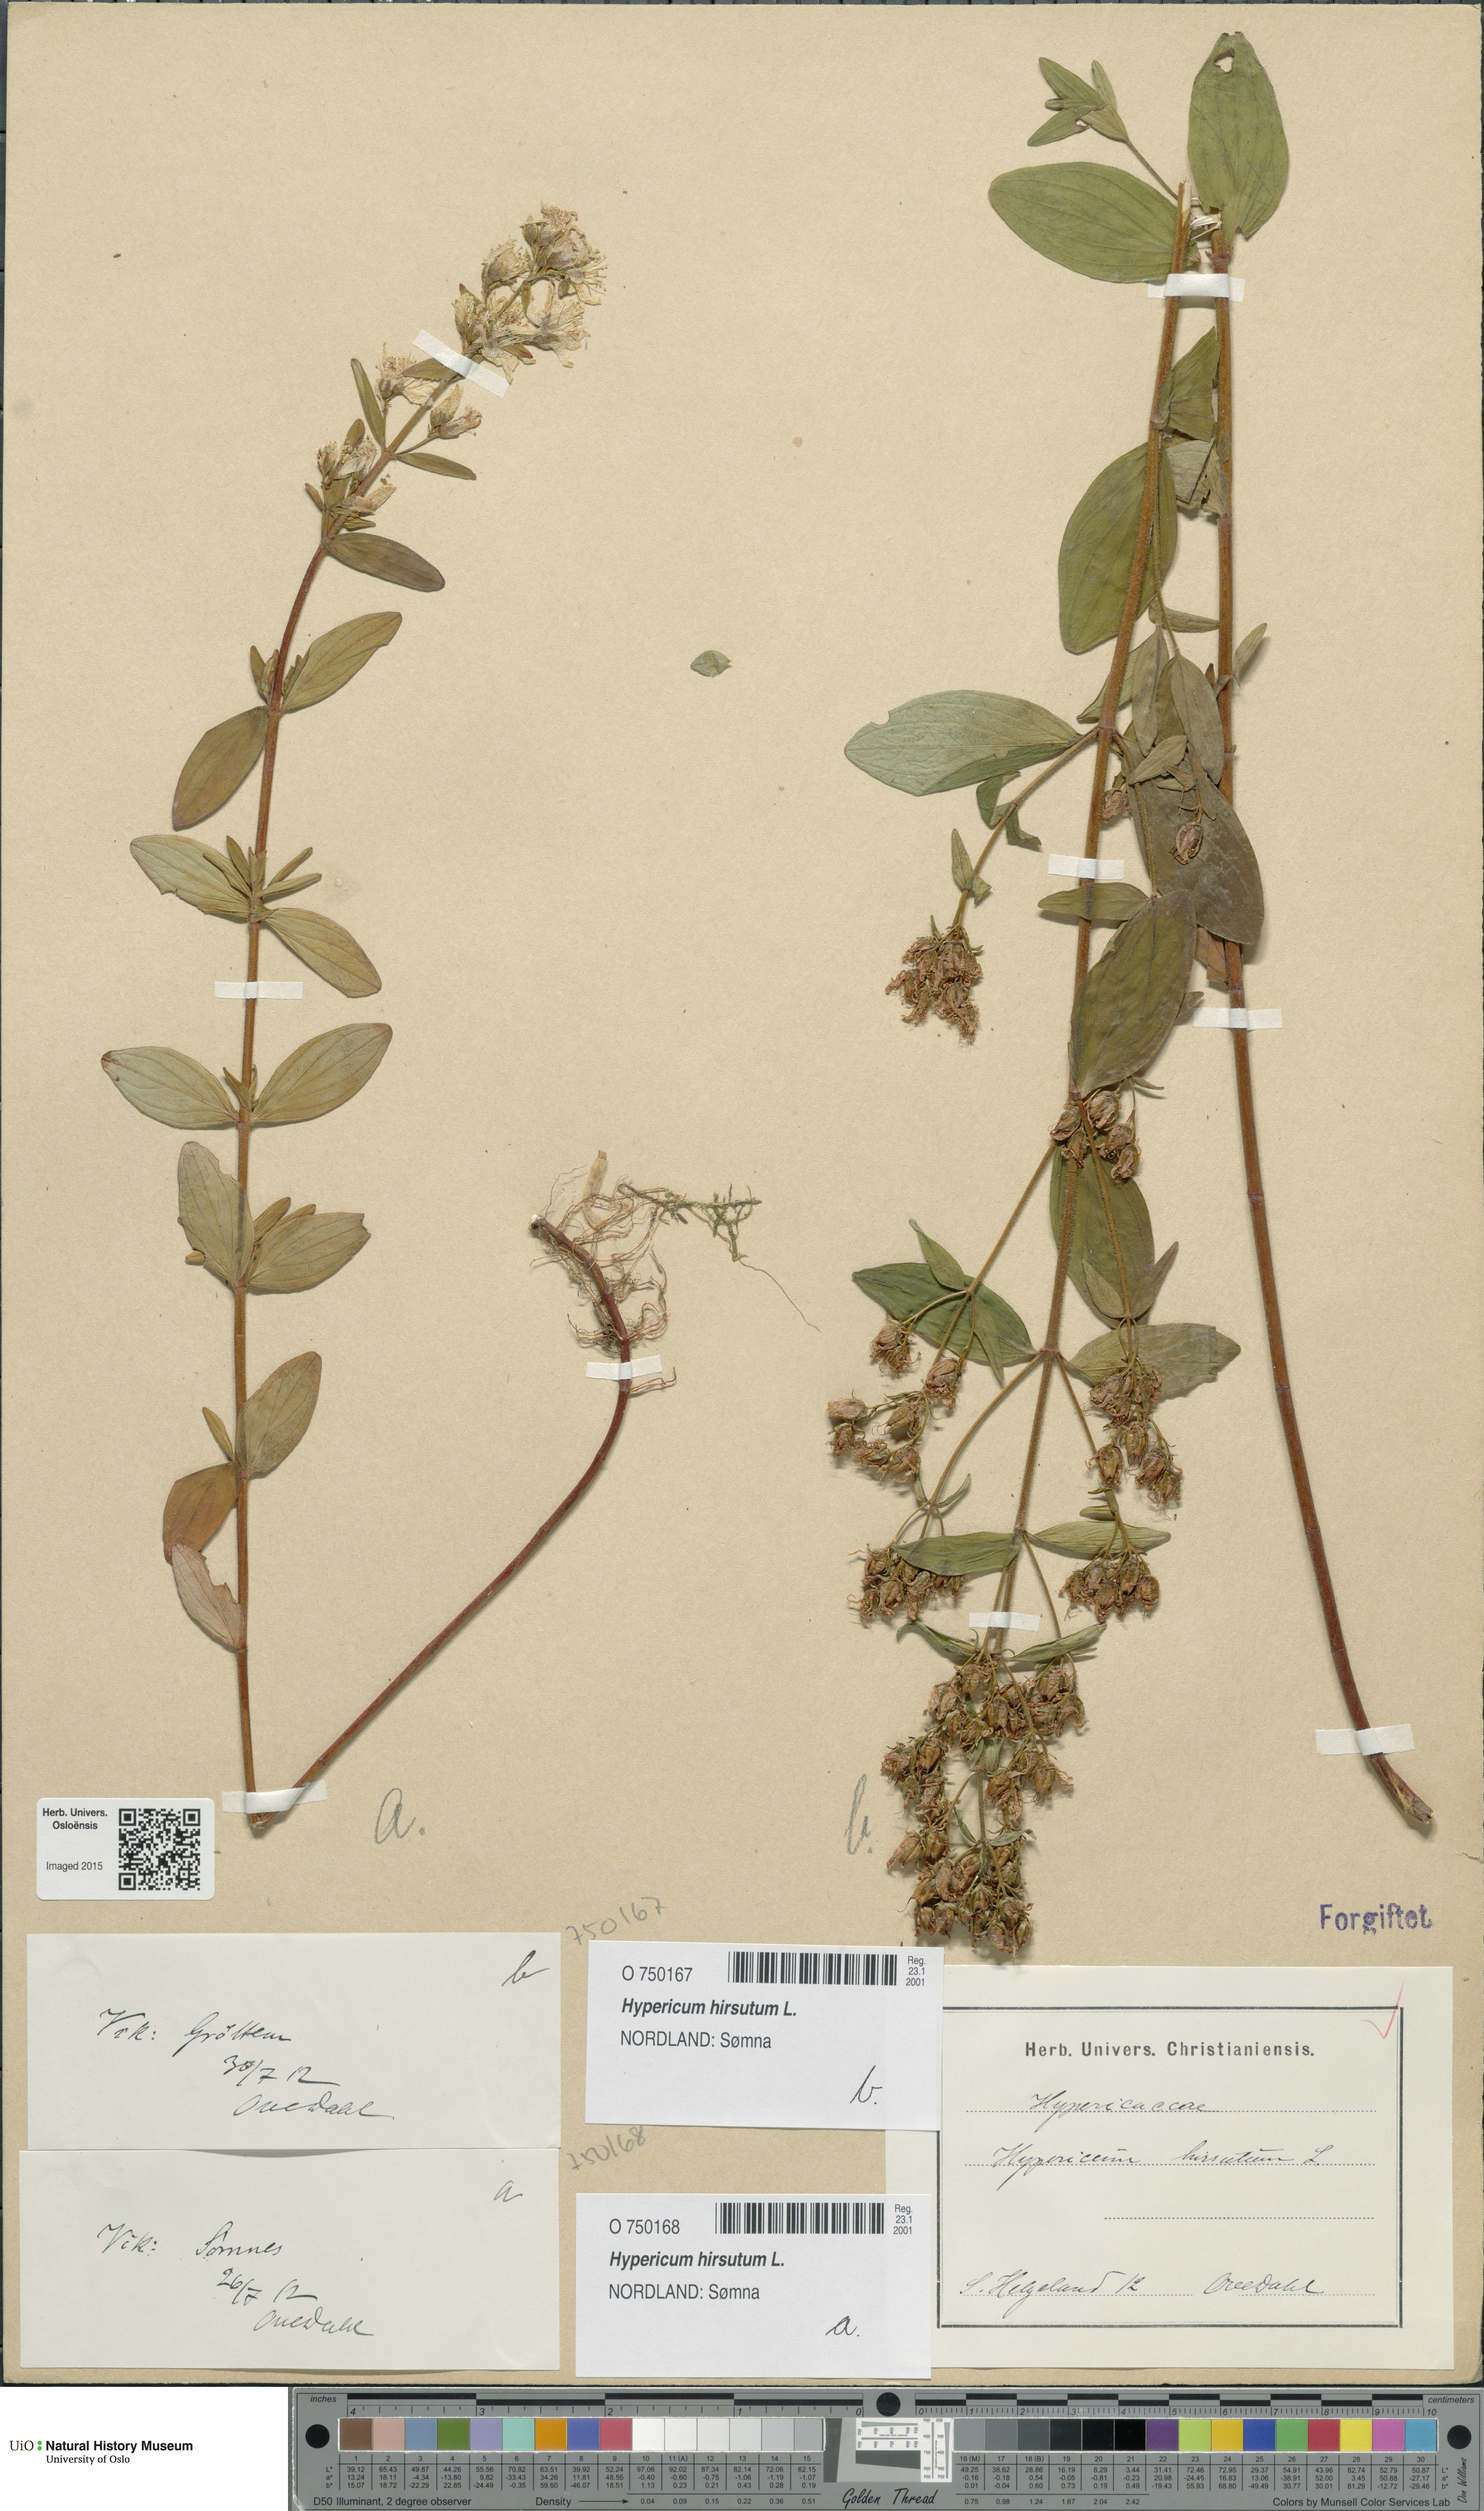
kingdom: Plantae
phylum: Tracheophyta
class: Magnoliopsida
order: Malpighiales
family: Hypericaceae
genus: Hypericum
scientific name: Hypericum hirsutum
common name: Hairy st. john's-wort
